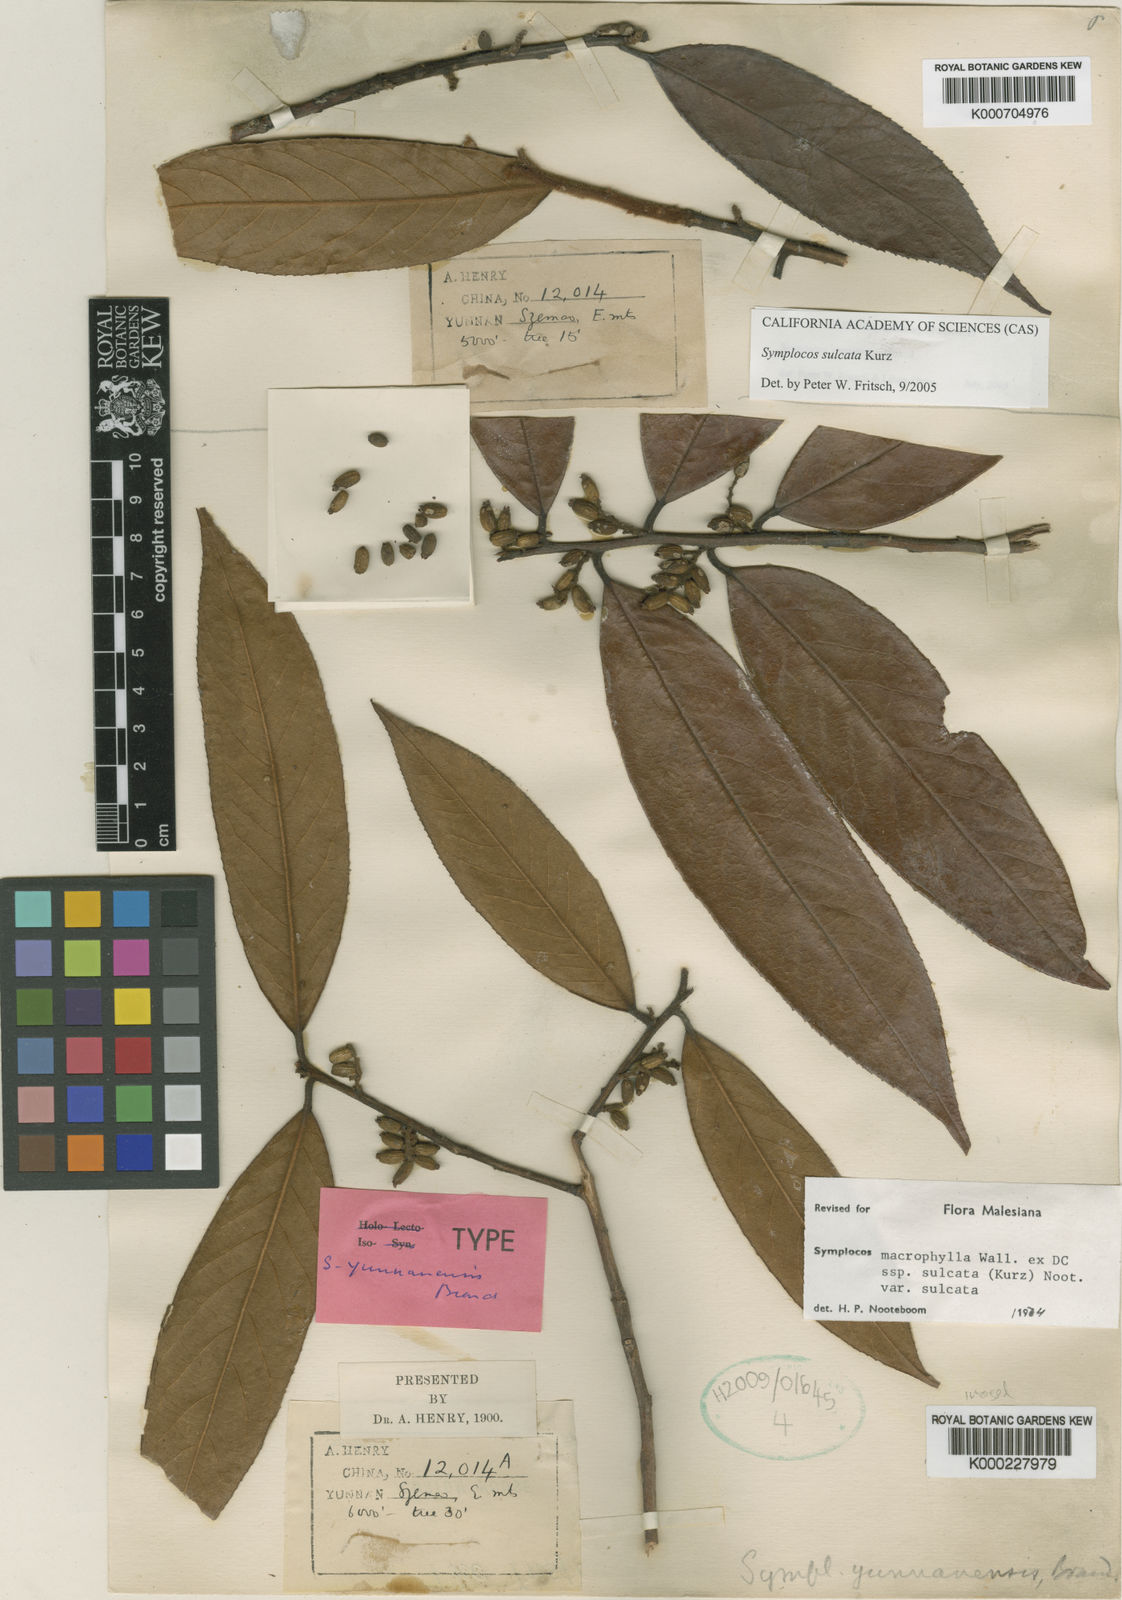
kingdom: Plantae
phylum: Tracheophyta
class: Magnoliopsida
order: Ericales
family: Symplocaceae
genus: Symplocos
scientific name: Symplocos sulcata
